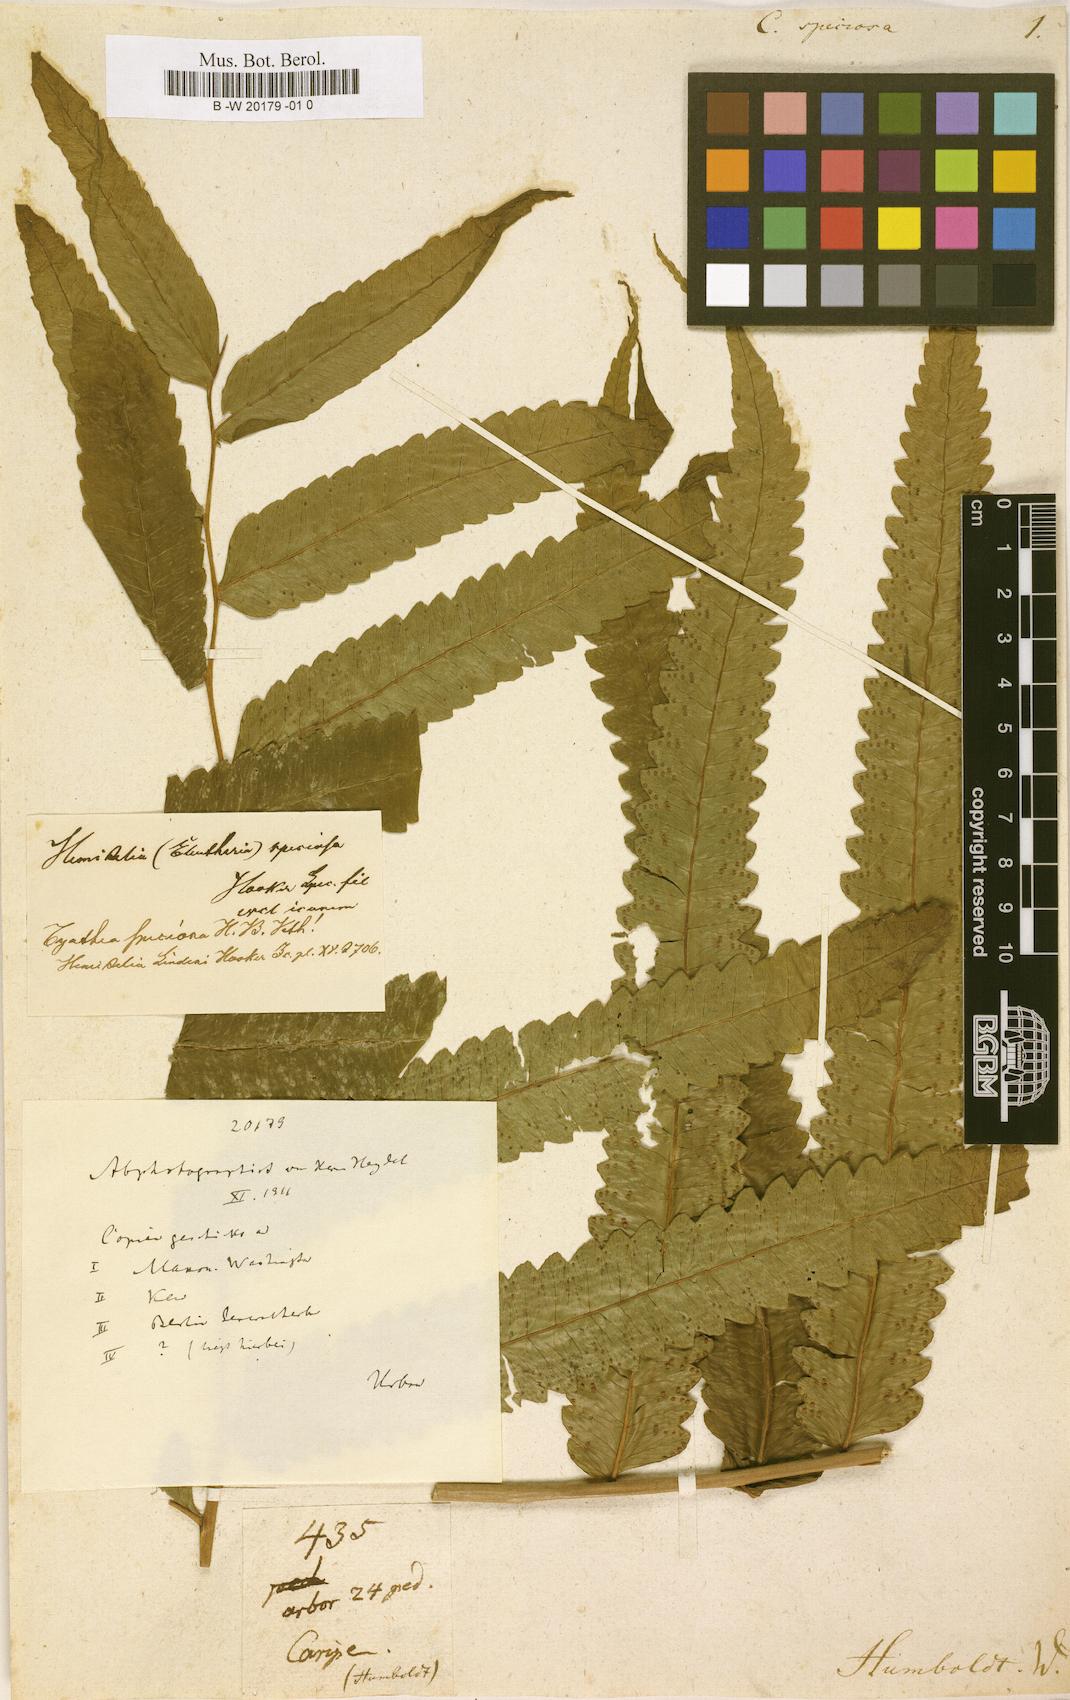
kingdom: Plantae
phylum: Tracheophyta
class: Polypodiopsida
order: Cyatheales
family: Cyatheaceae
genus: Cyathea
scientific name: Cyathea speciosa
